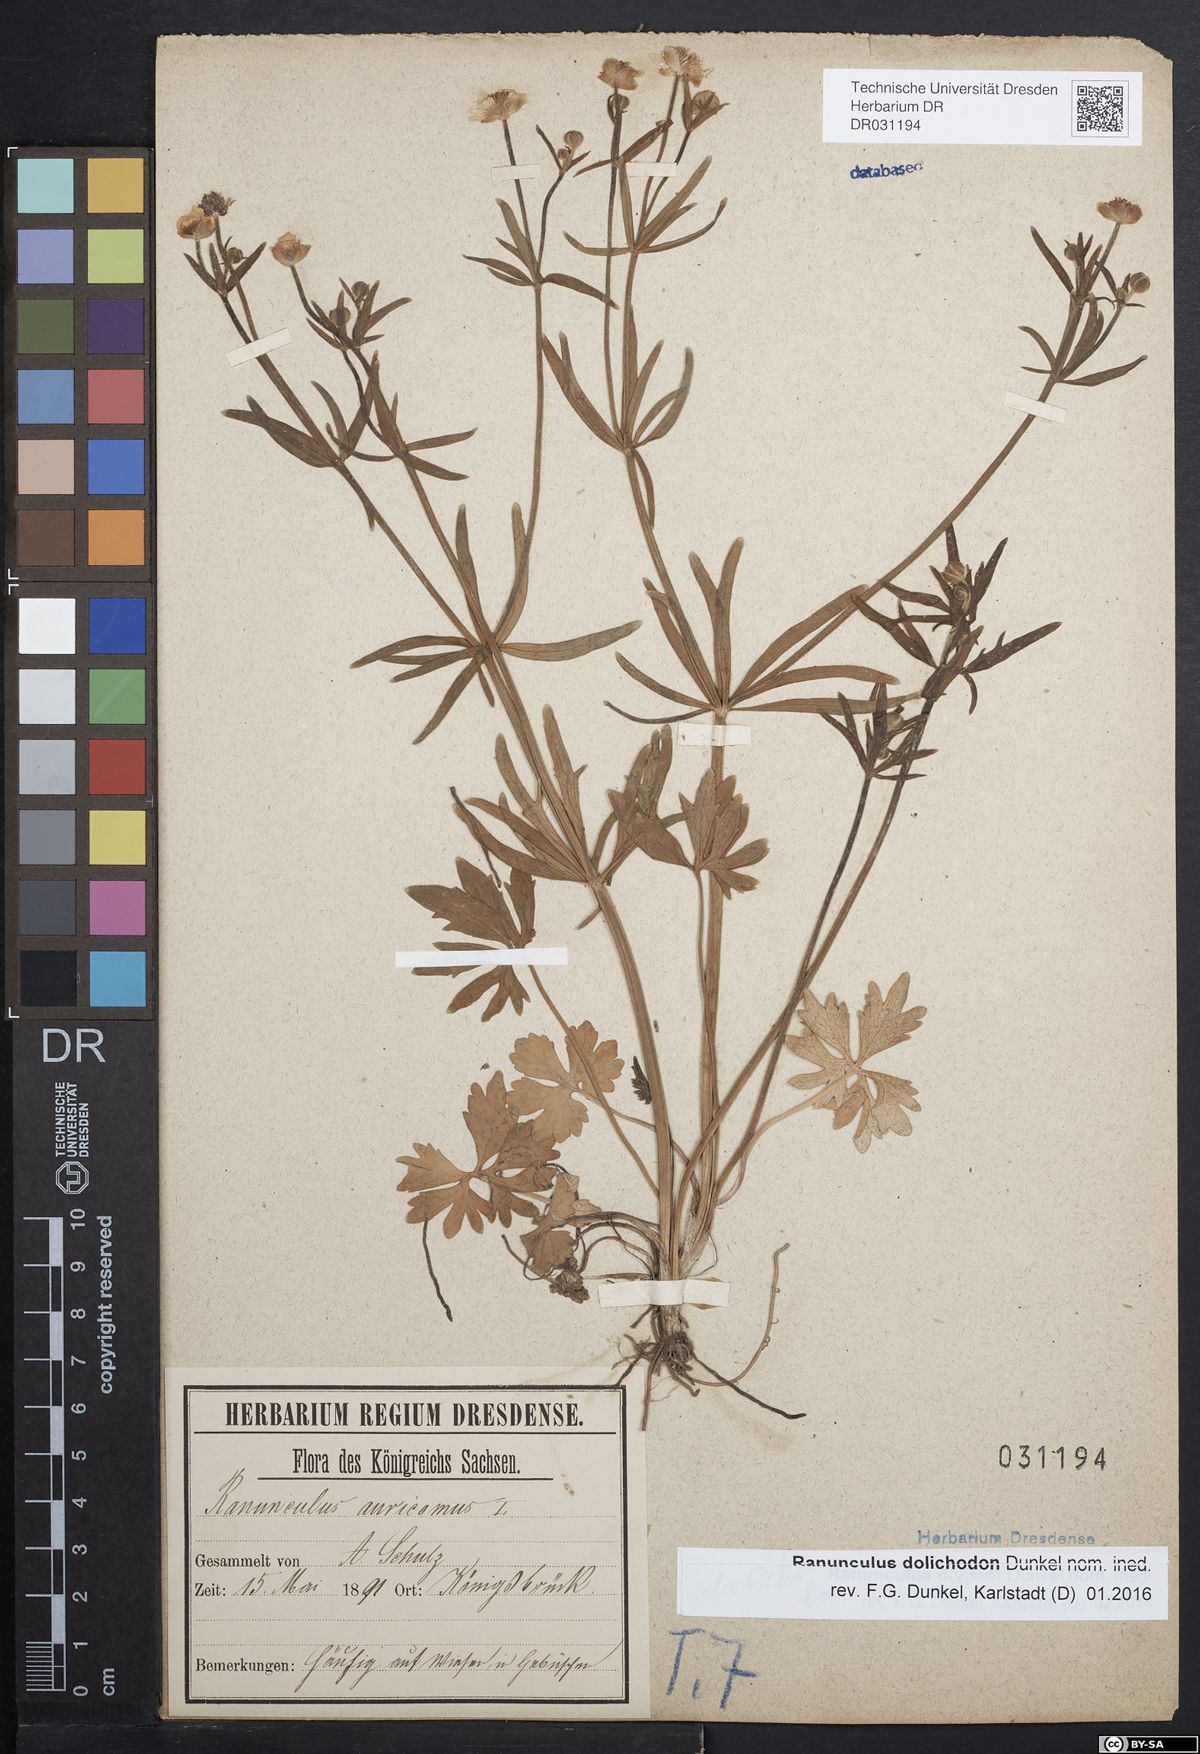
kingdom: Plantae
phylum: Tracheophyta
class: Magnoliopsida
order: Ranunculales
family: Ranunculaceae
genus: Ranunculus
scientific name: Ranunculus auricomus
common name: Goldilocks buttercup
